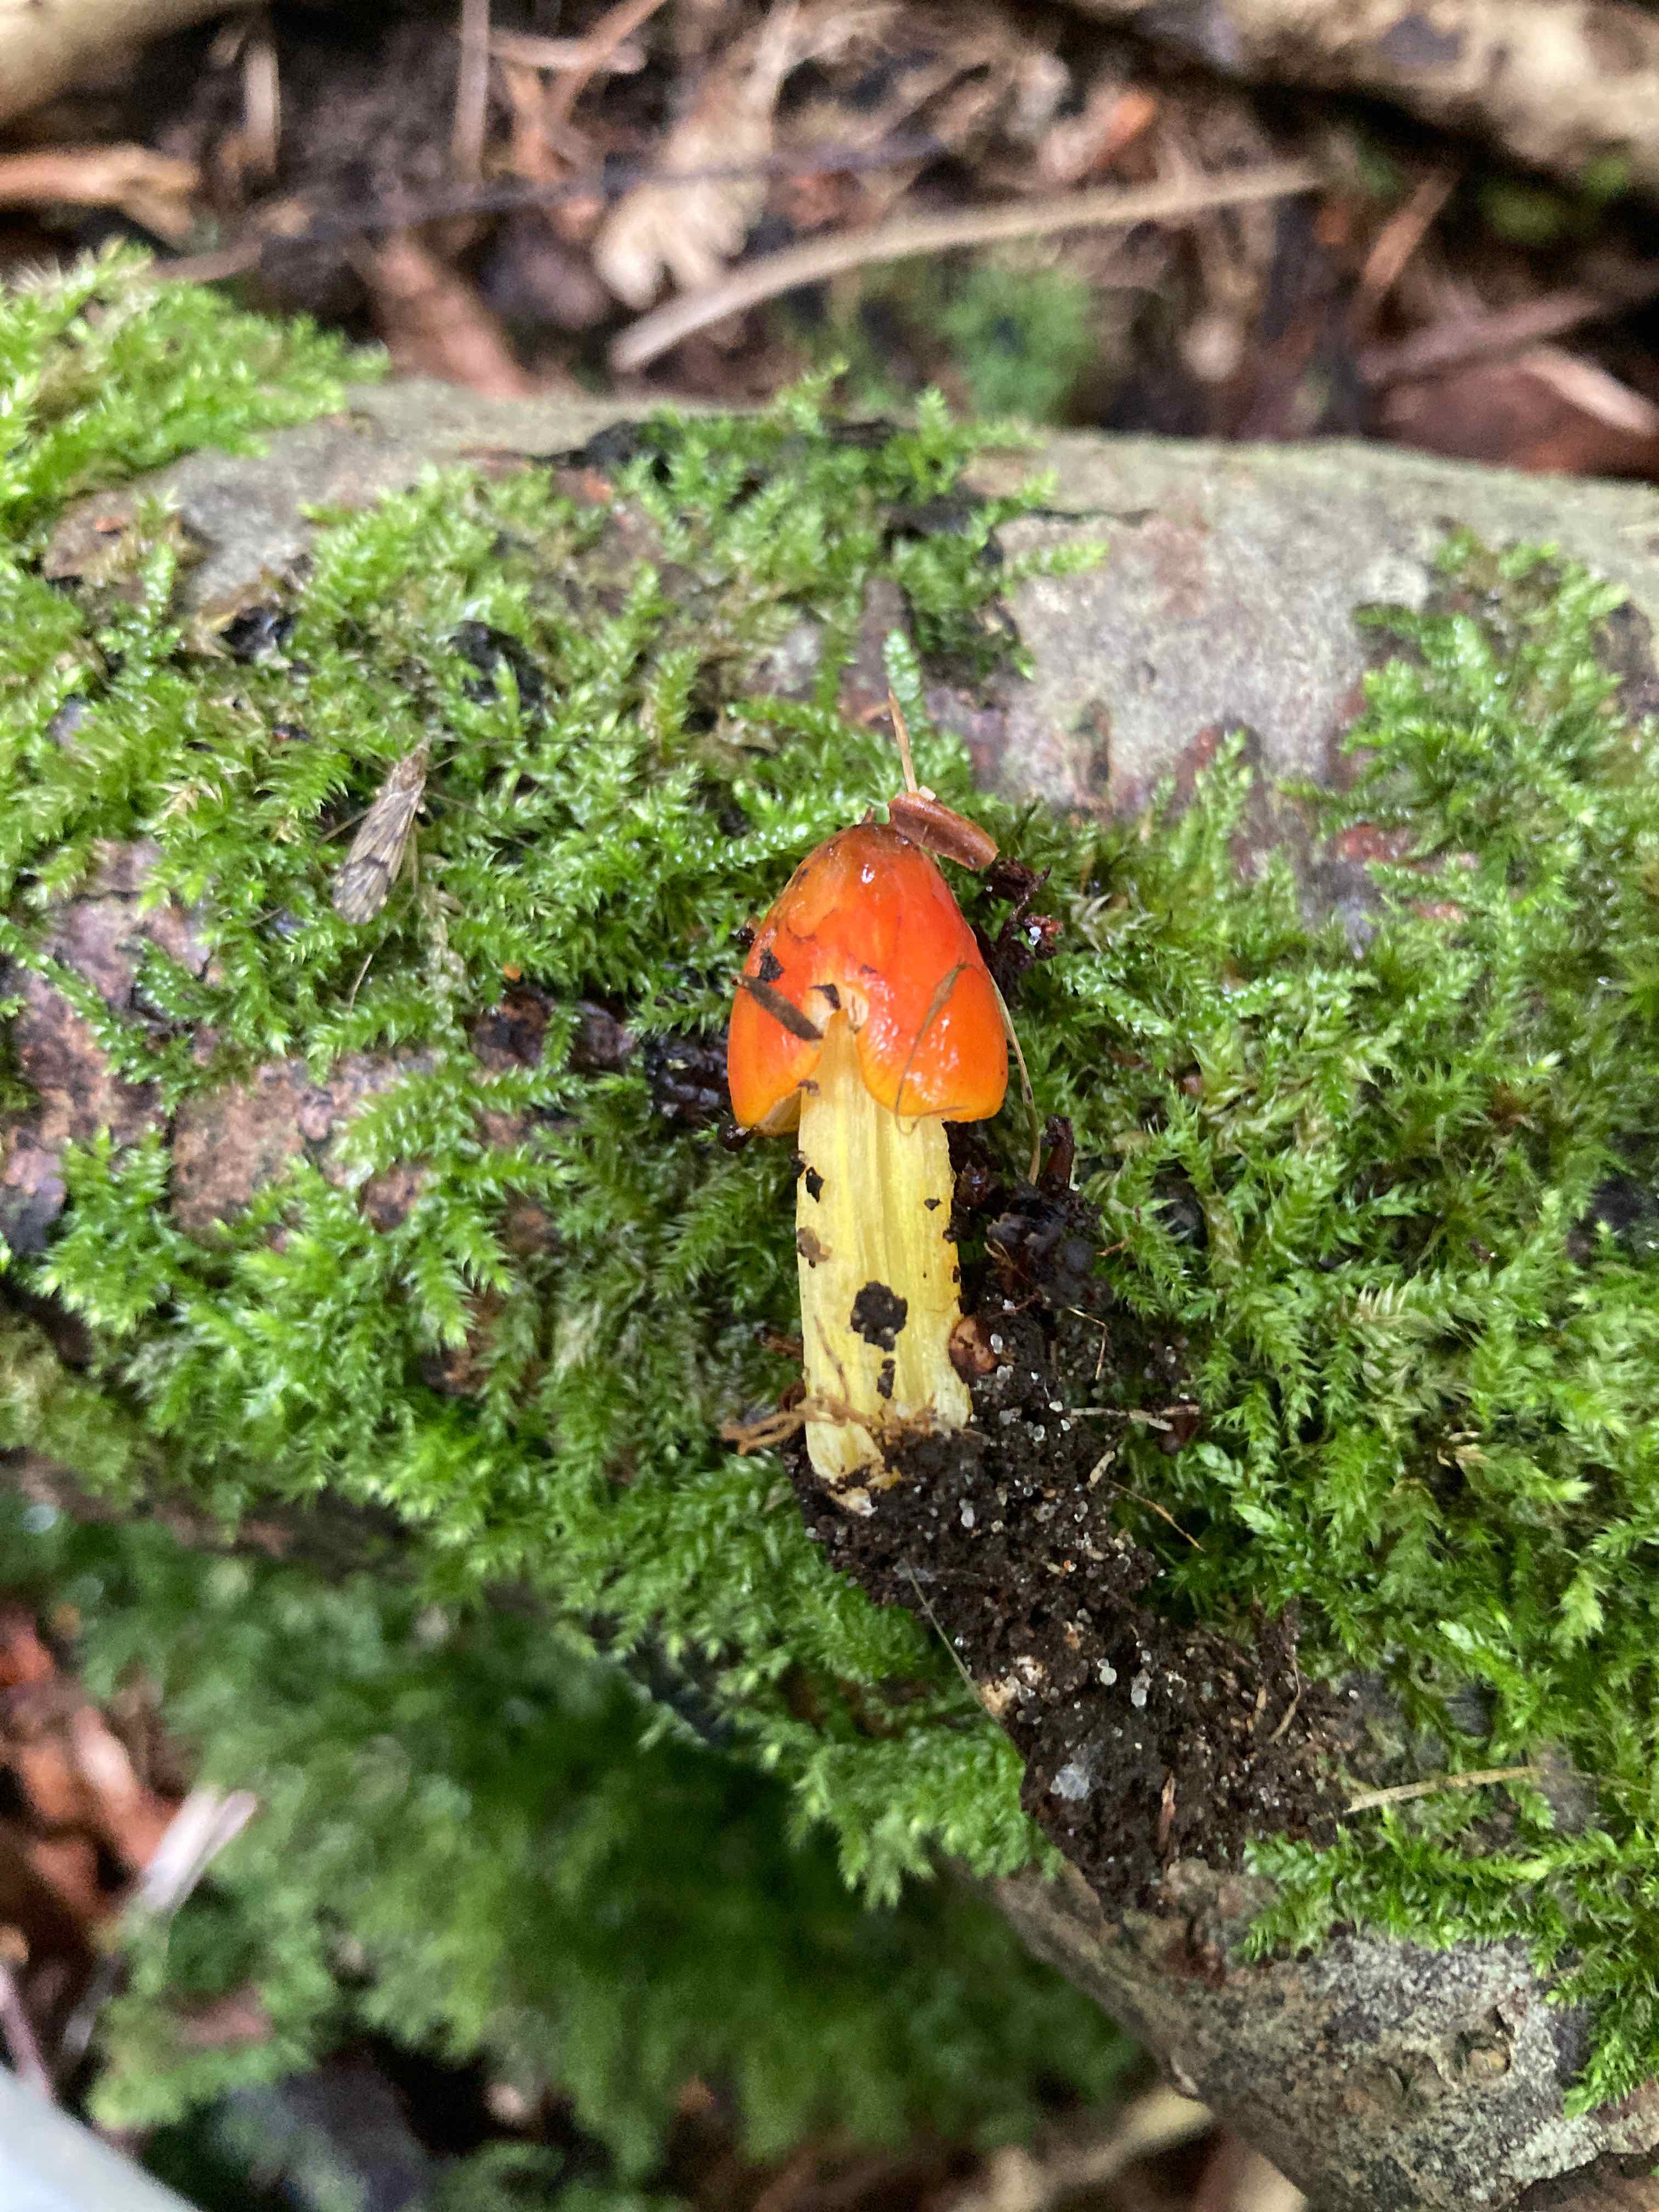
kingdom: Fungi
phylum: Basidiomycota
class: Agaricomycetes
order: Agaricales
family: Hygrophoraceae
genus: Hygrocybe
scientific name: Hygrocybe conica
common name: kegle-vokshat
